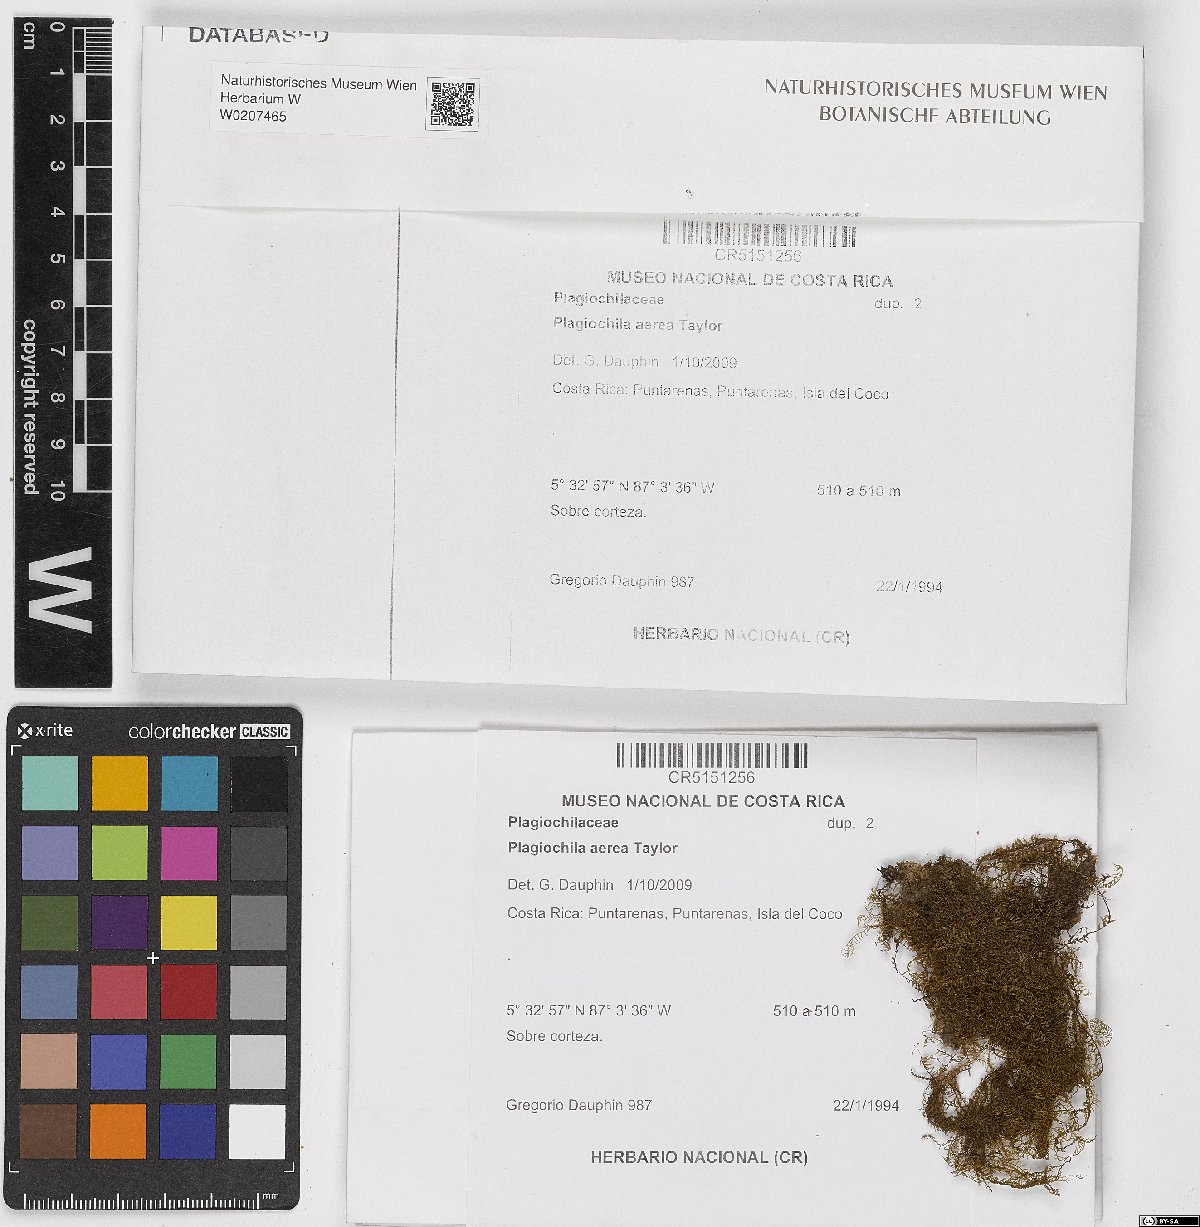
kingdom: Plantae
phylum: Marchantiophyta
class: Jungermanniopsida
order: Jungermanniales
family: Plagiochilaceae
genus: Plagiochila
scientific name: Plagiochila aerea
